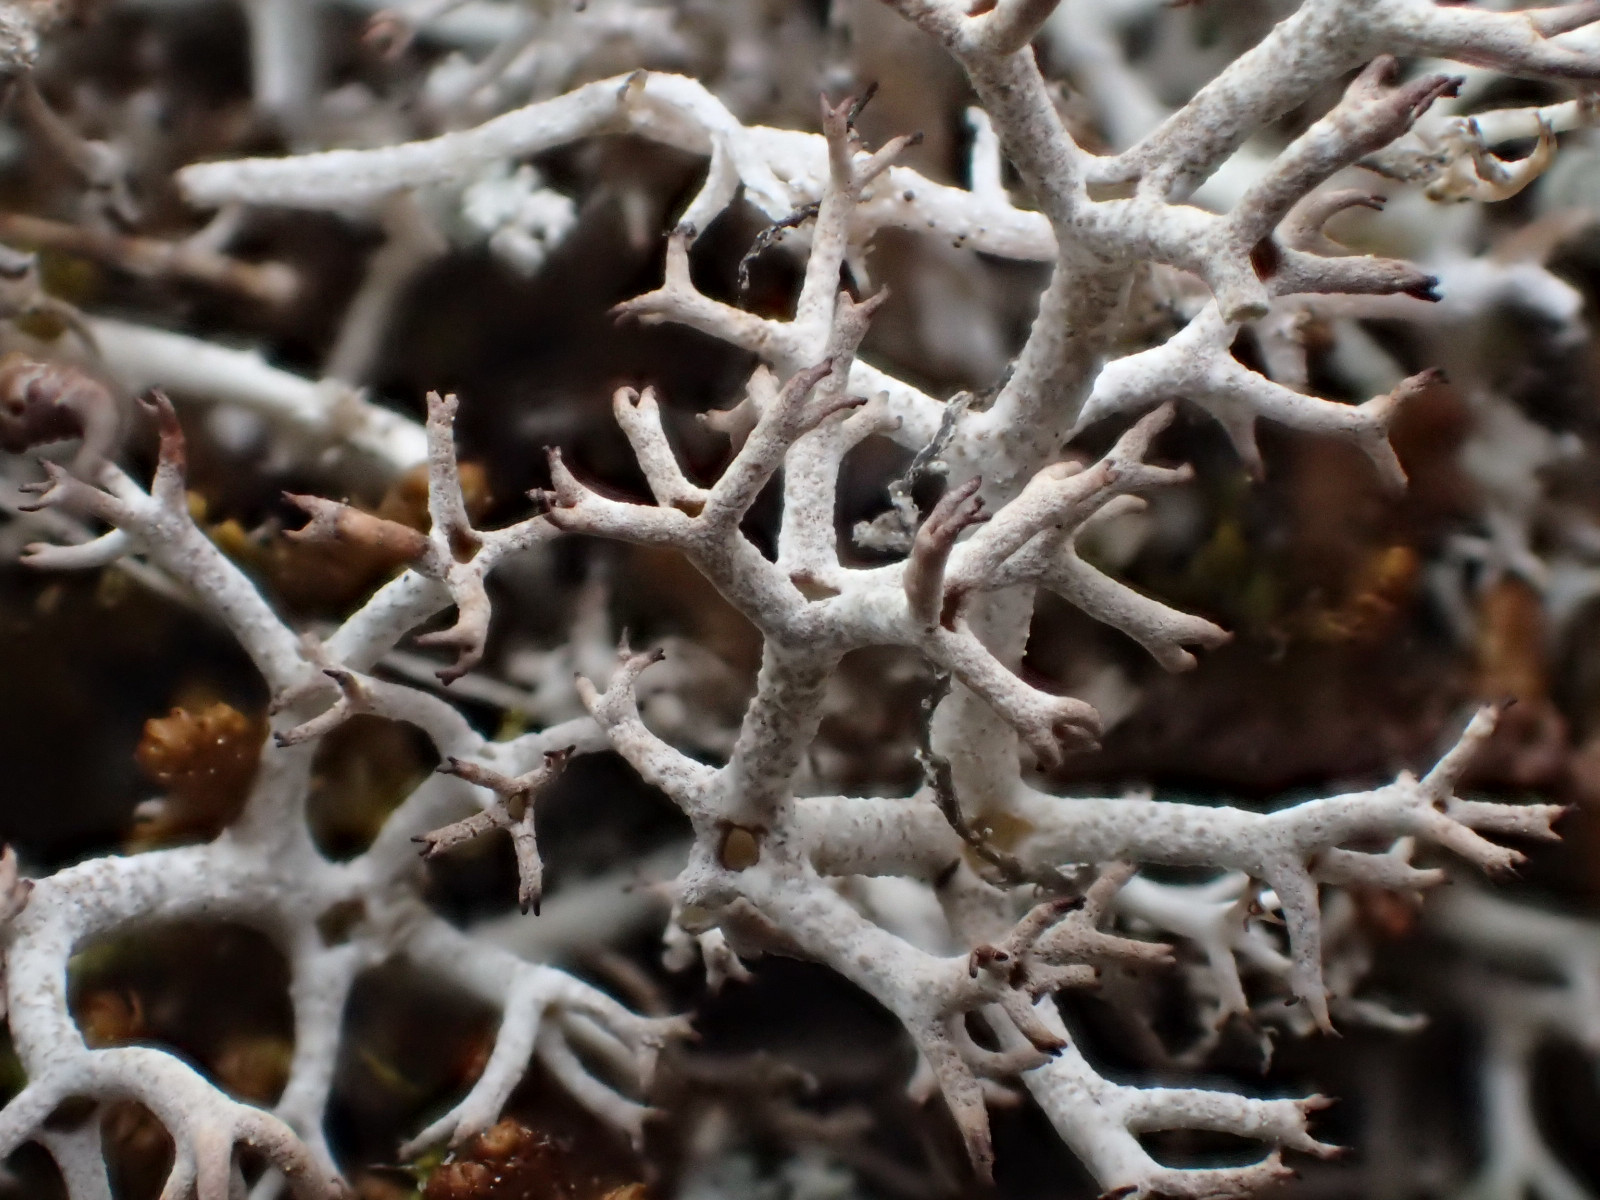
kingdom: Fungi
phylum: Ascomycota
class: Lecanoromycetes
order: Lecanorales
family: Cladoniaceae
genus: Cladonia
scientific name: Cladonia portentosa
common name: hede-rensdyrlav
